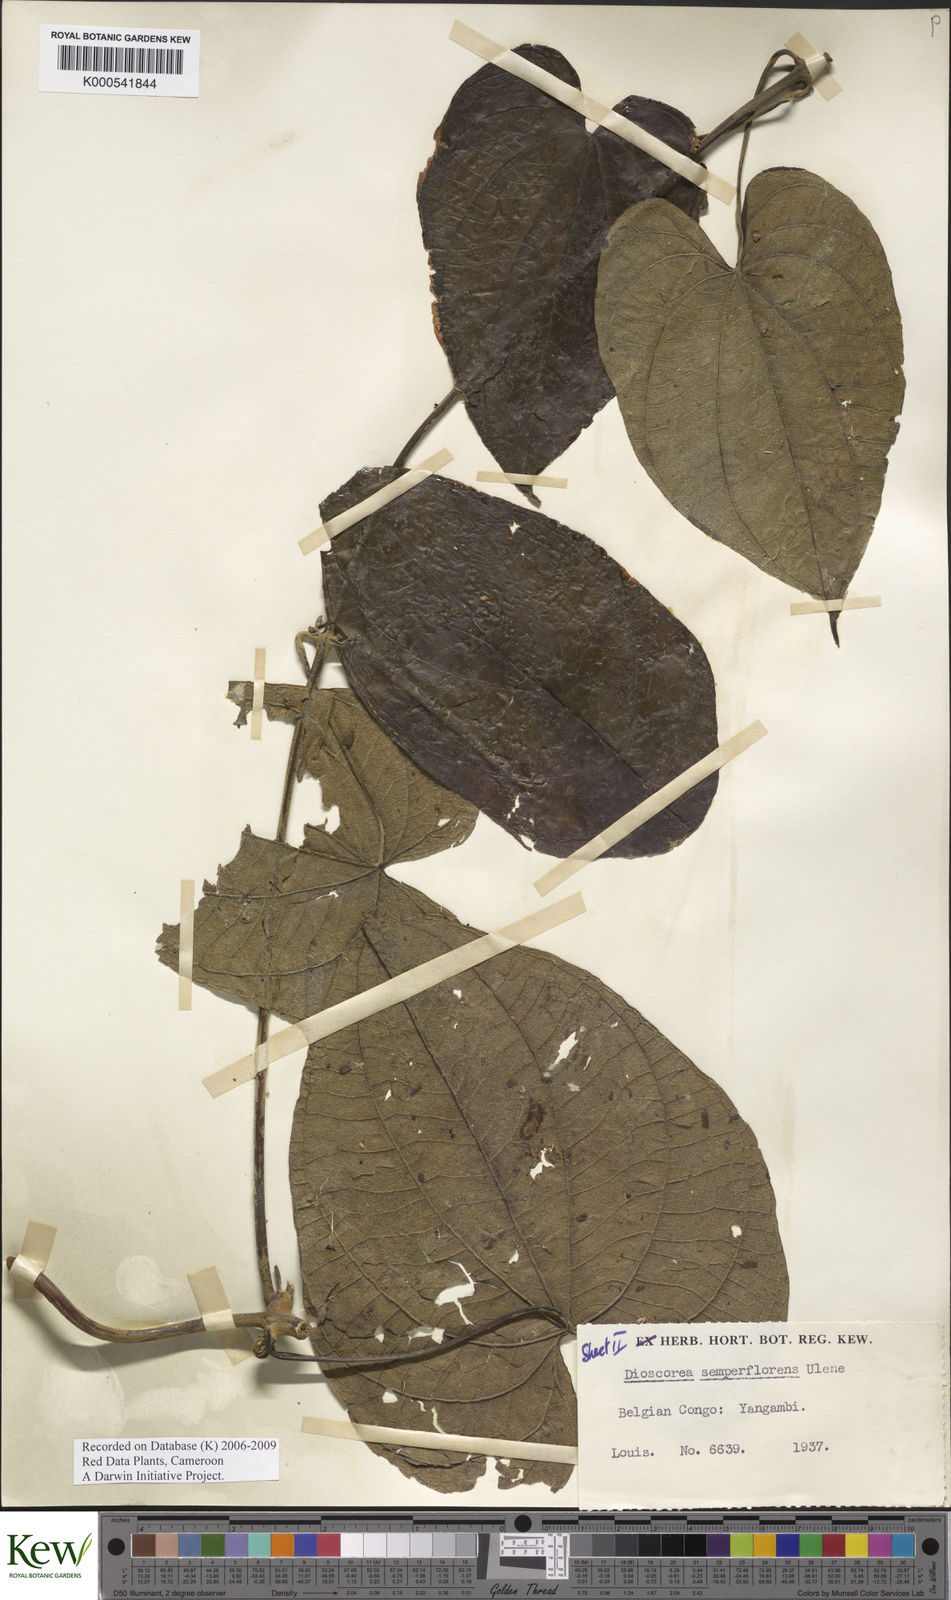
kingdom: Plantae
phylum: Tracheophyta
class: Liliopsida
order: Dioscoreales
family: Dioscoreaceae
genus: Dioscorea
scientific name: Dioscorea semperflorens
